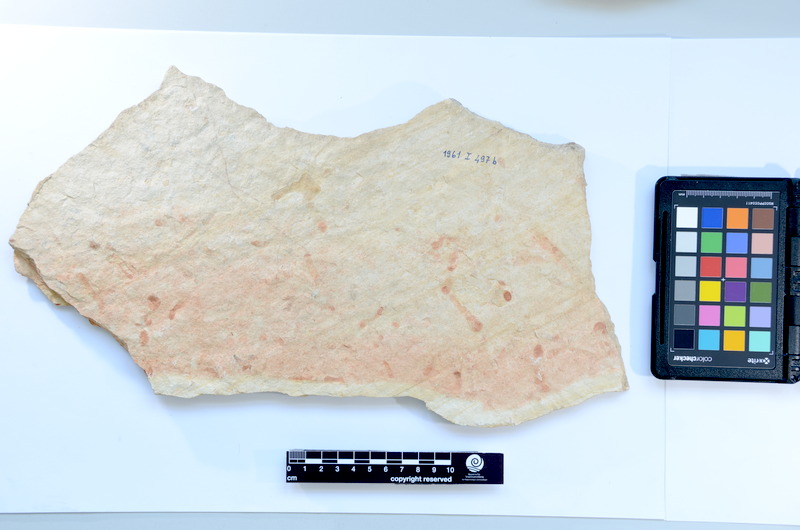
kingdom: Animalia
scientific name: Animalia
